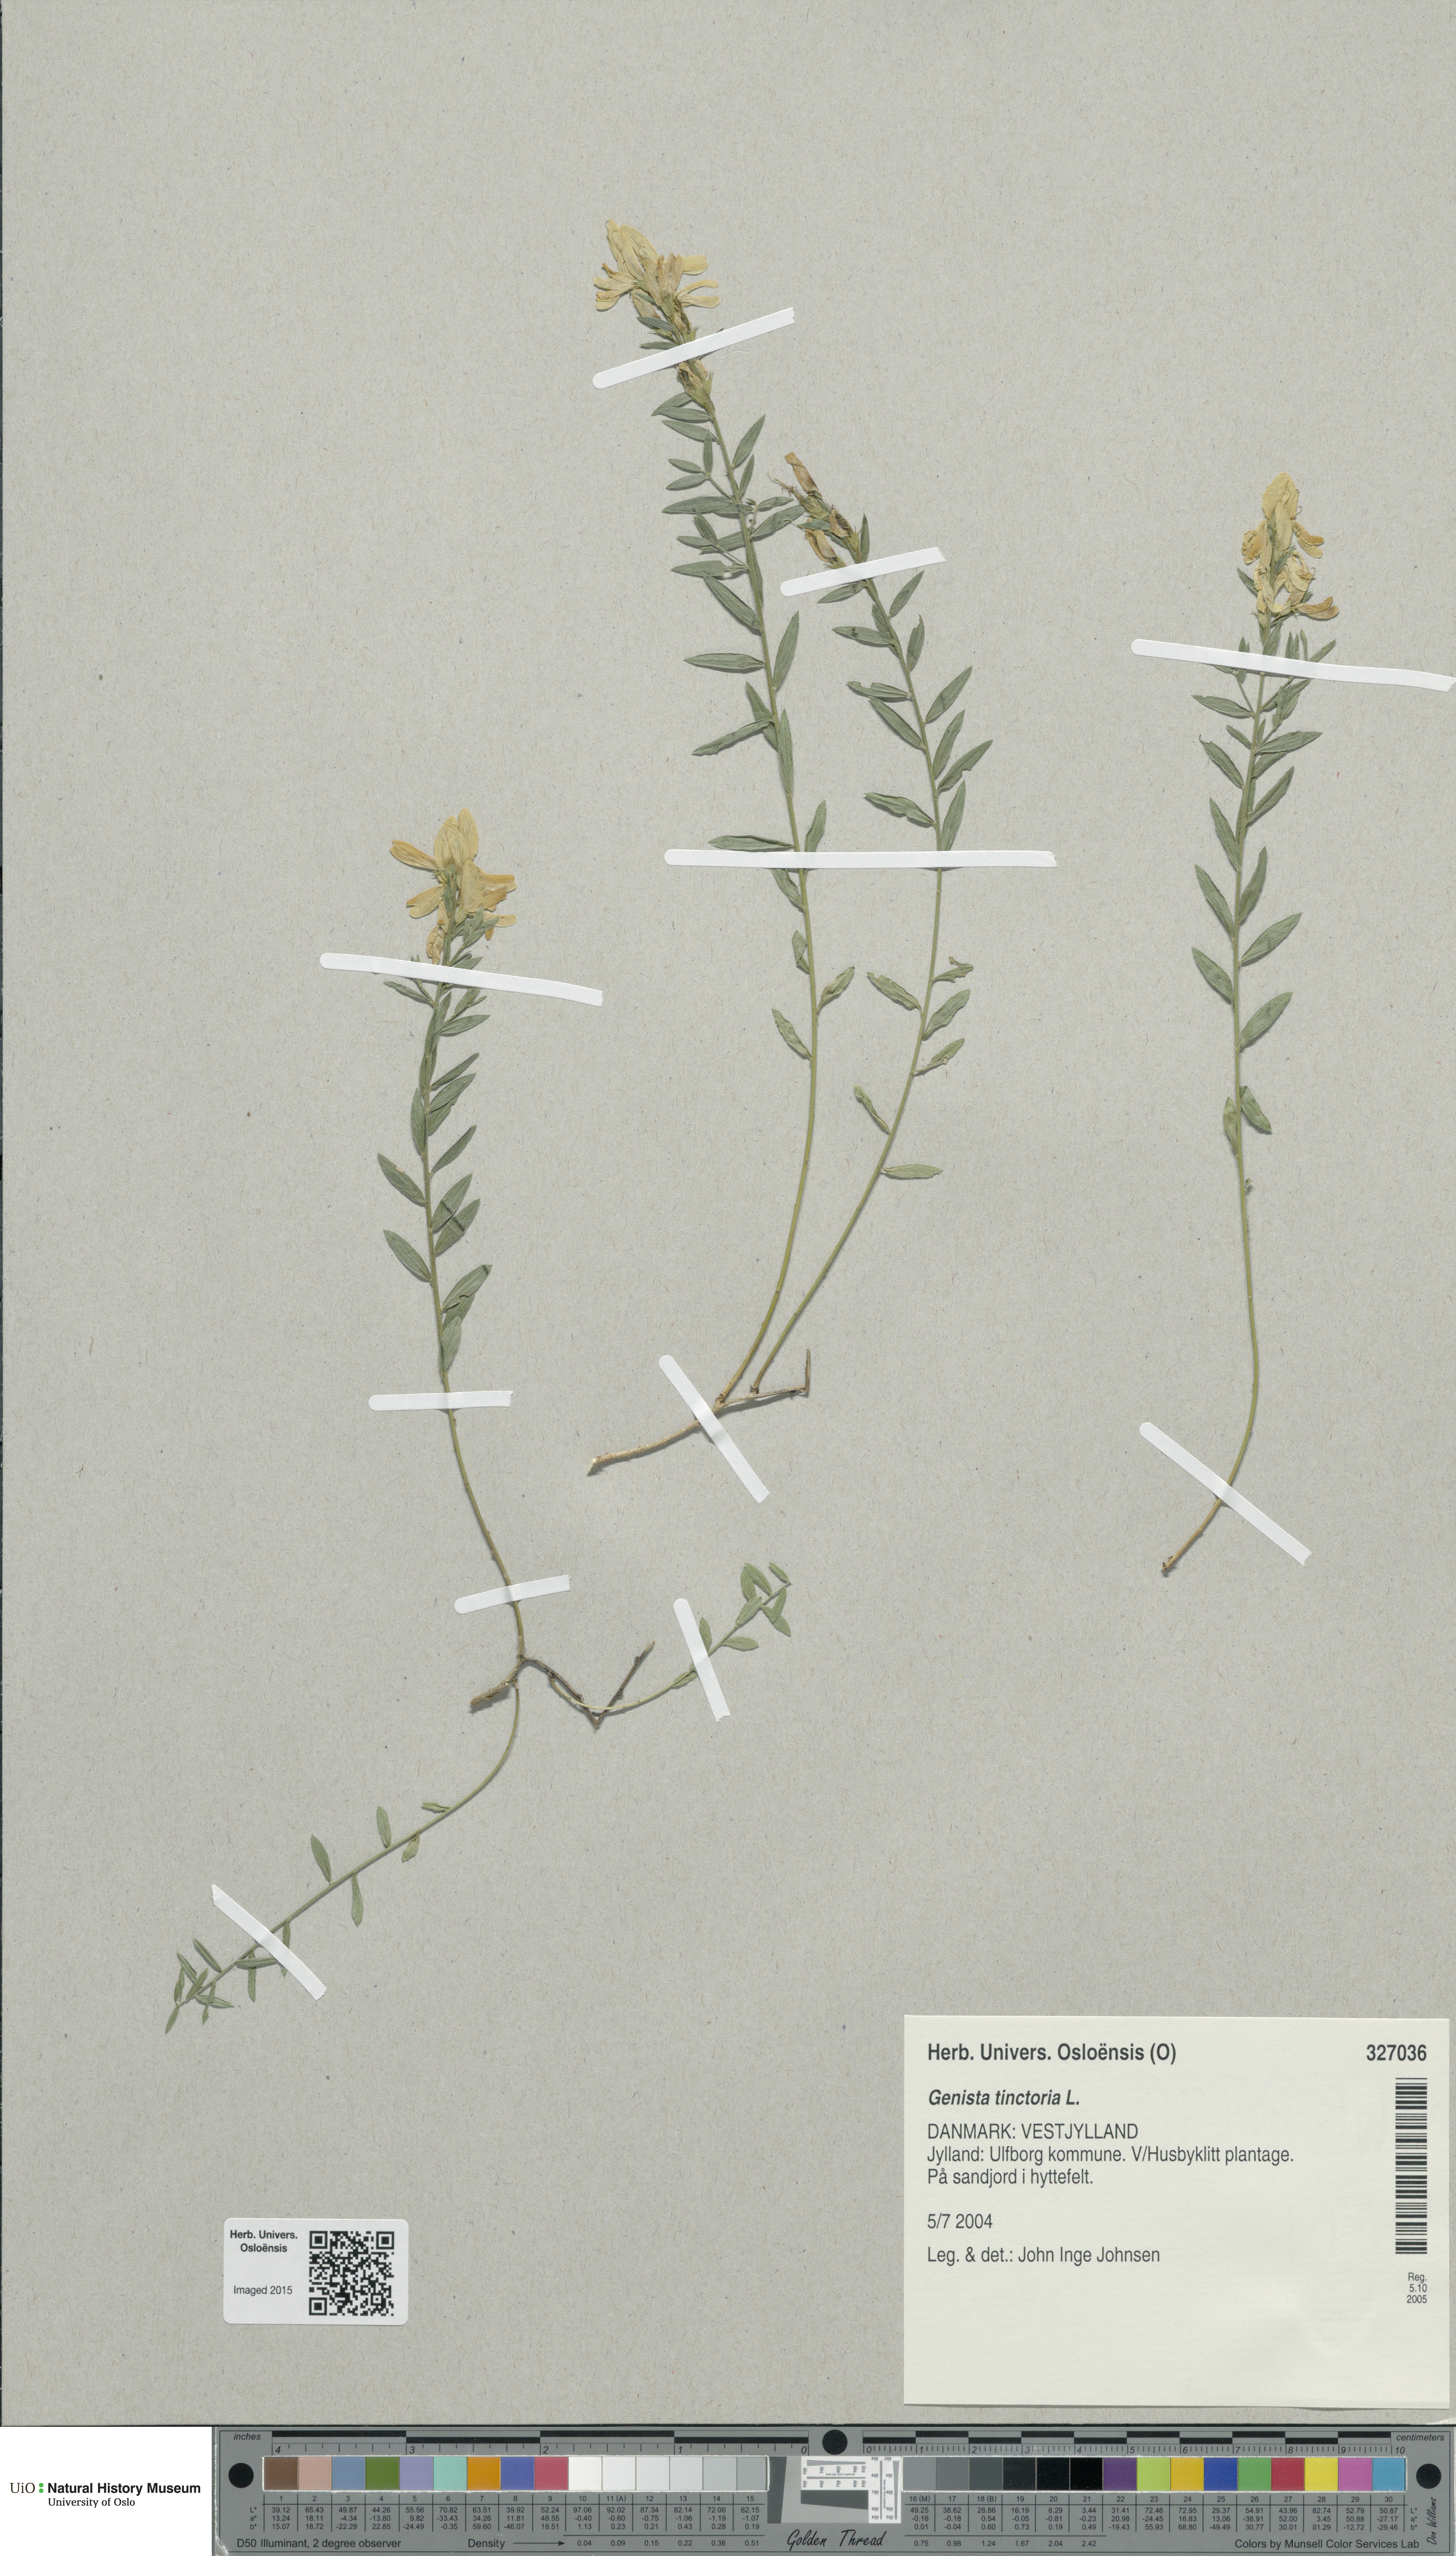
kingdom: Plantae
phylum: Tracheophyta
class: Magnoliopsida
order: Fabales
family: Fabaceae
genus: Genista
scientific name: Genista tinctoria
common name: Dyer's greenweed
